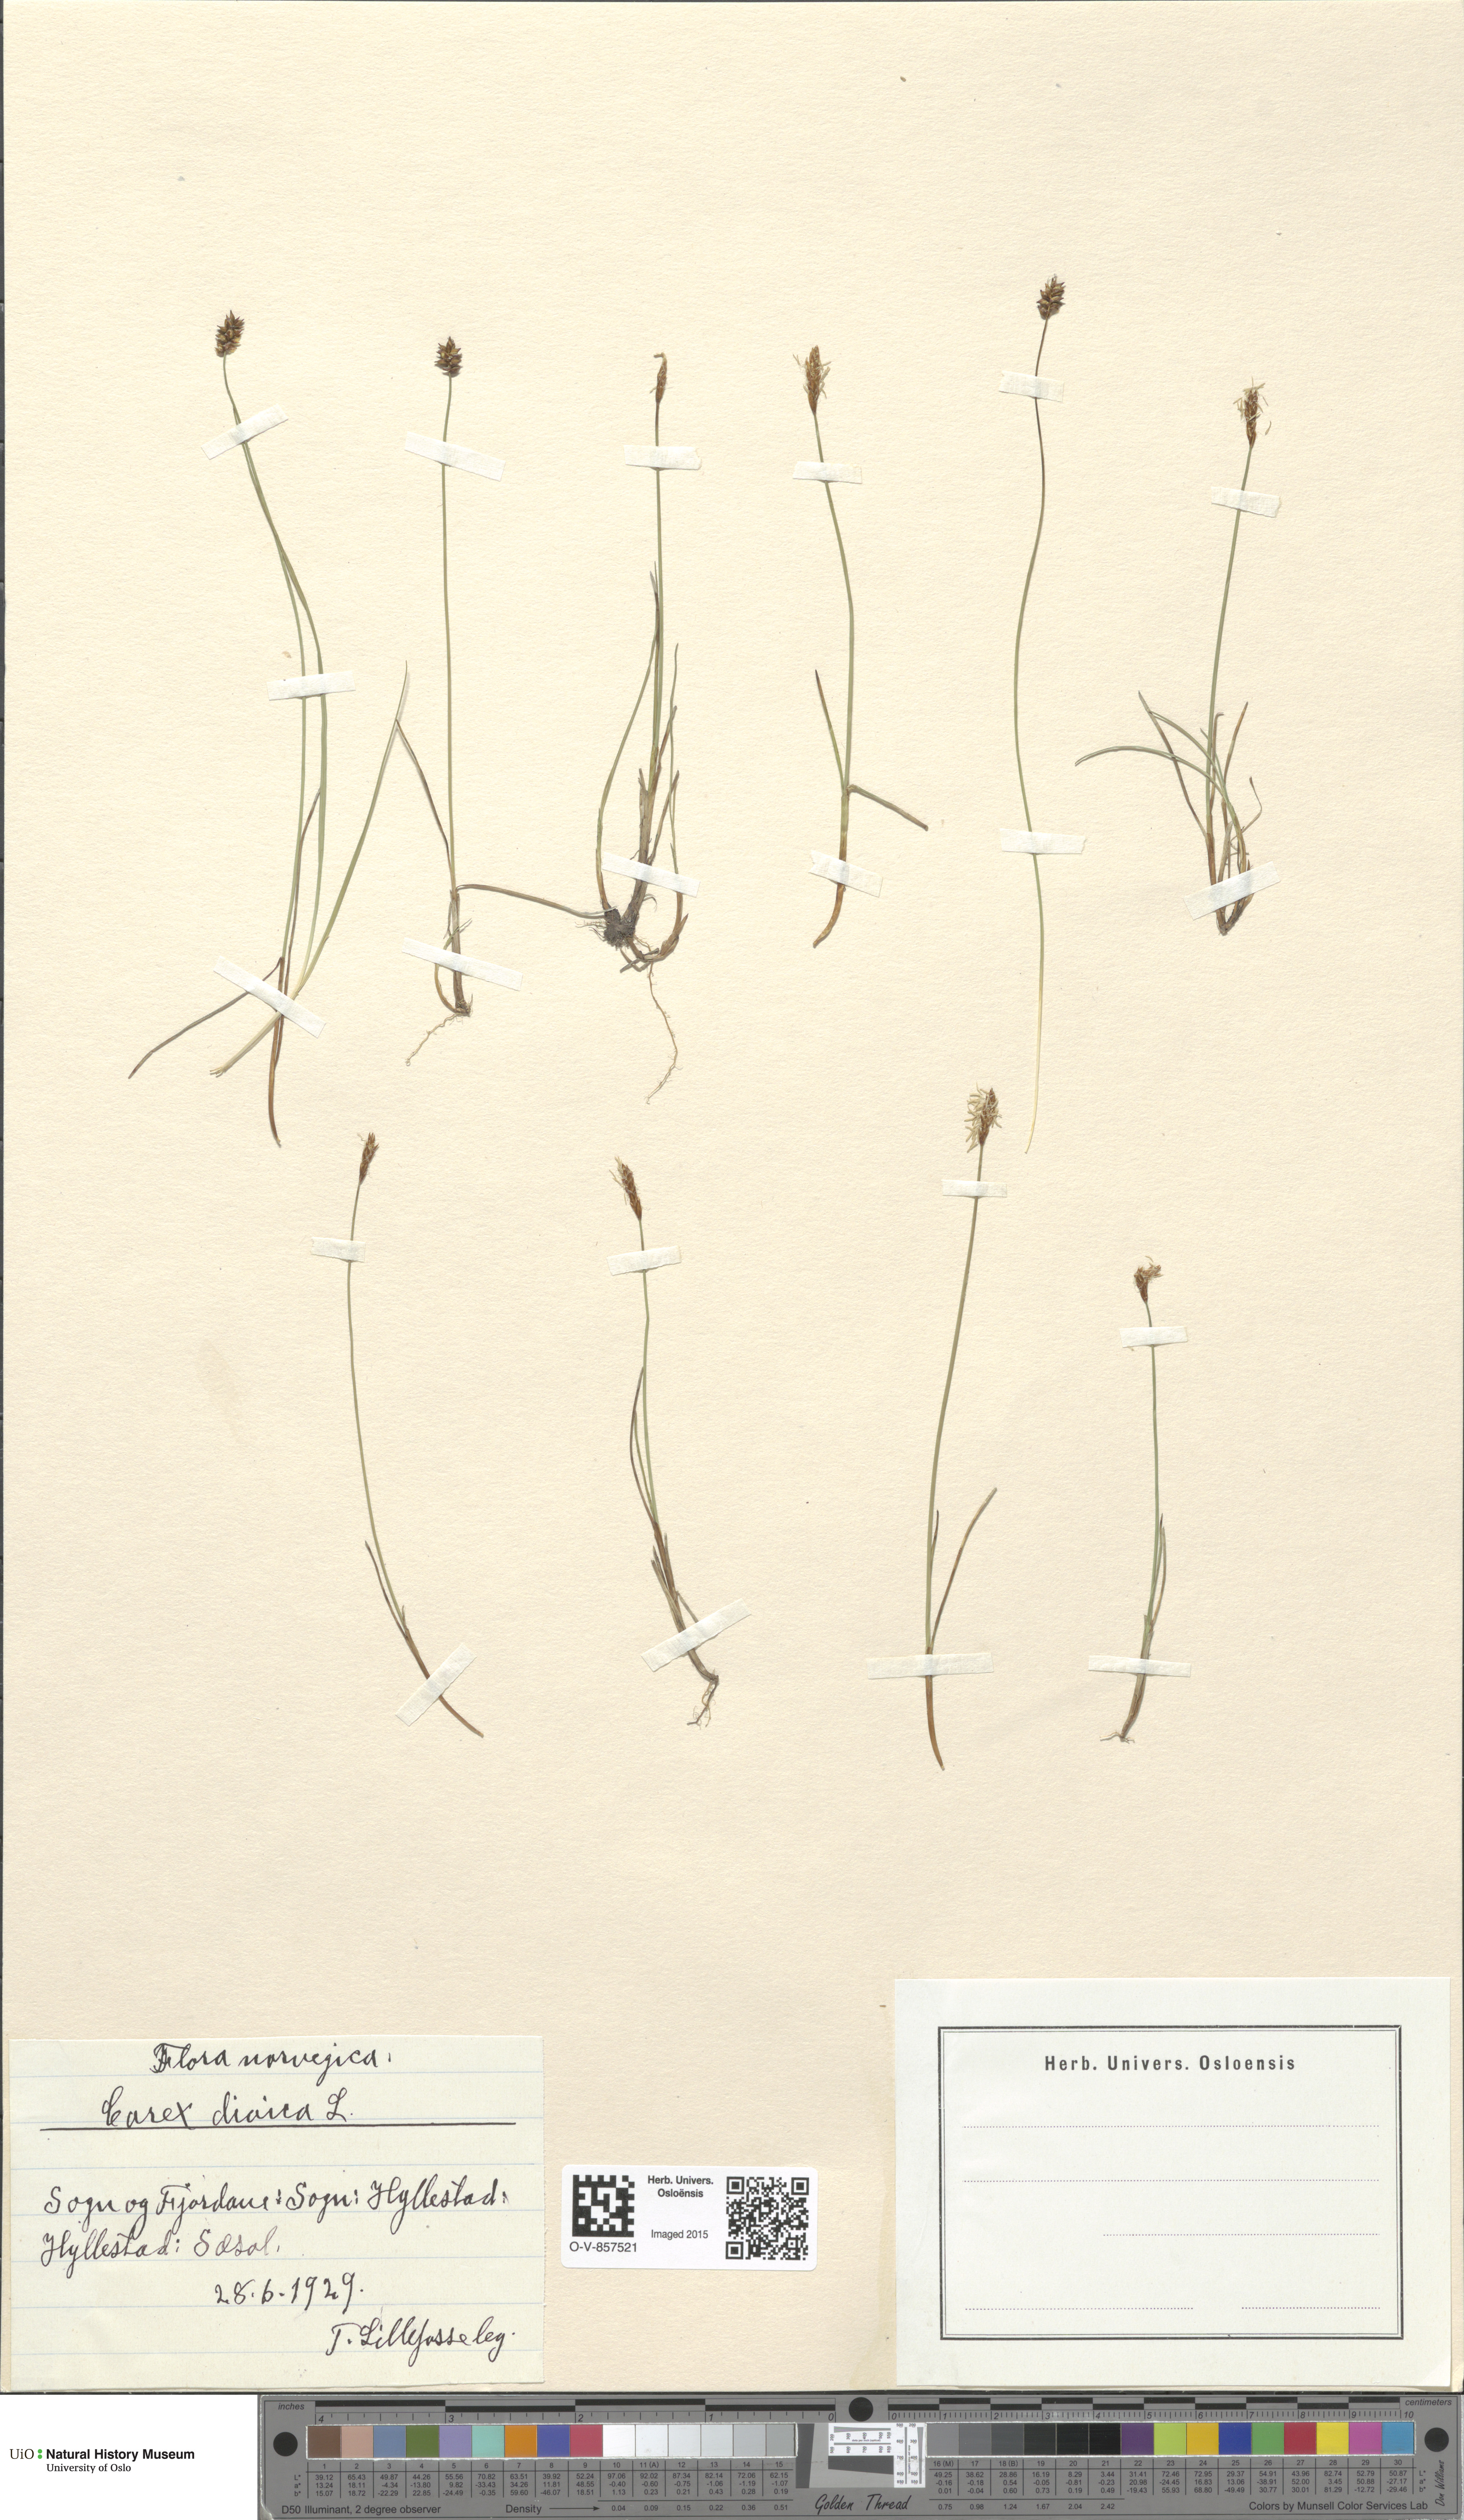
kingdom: Plantae
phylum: Tracheophyta
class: Liliopsida
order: Poales
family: Cyperaceae
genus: Carex
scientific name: Carex dioica
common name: Dioecious sedge
